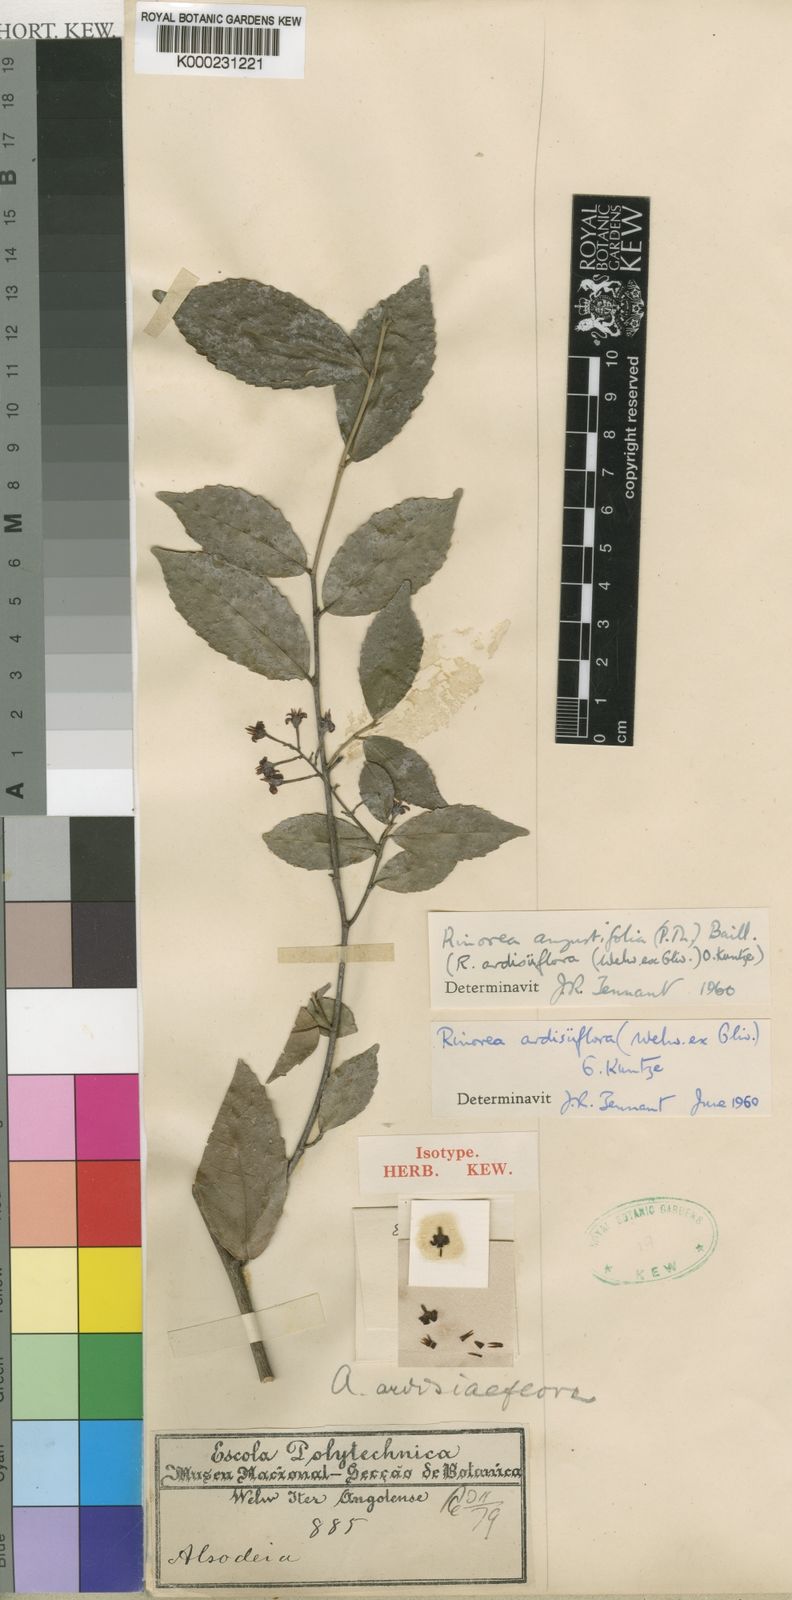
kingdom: Plantae
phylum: Tracheophyta
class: Magnoliopsida
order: Malpighiales
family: Violaceae
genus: Rinorea
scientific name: Rinorea angustifolia
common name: White violet-bush
